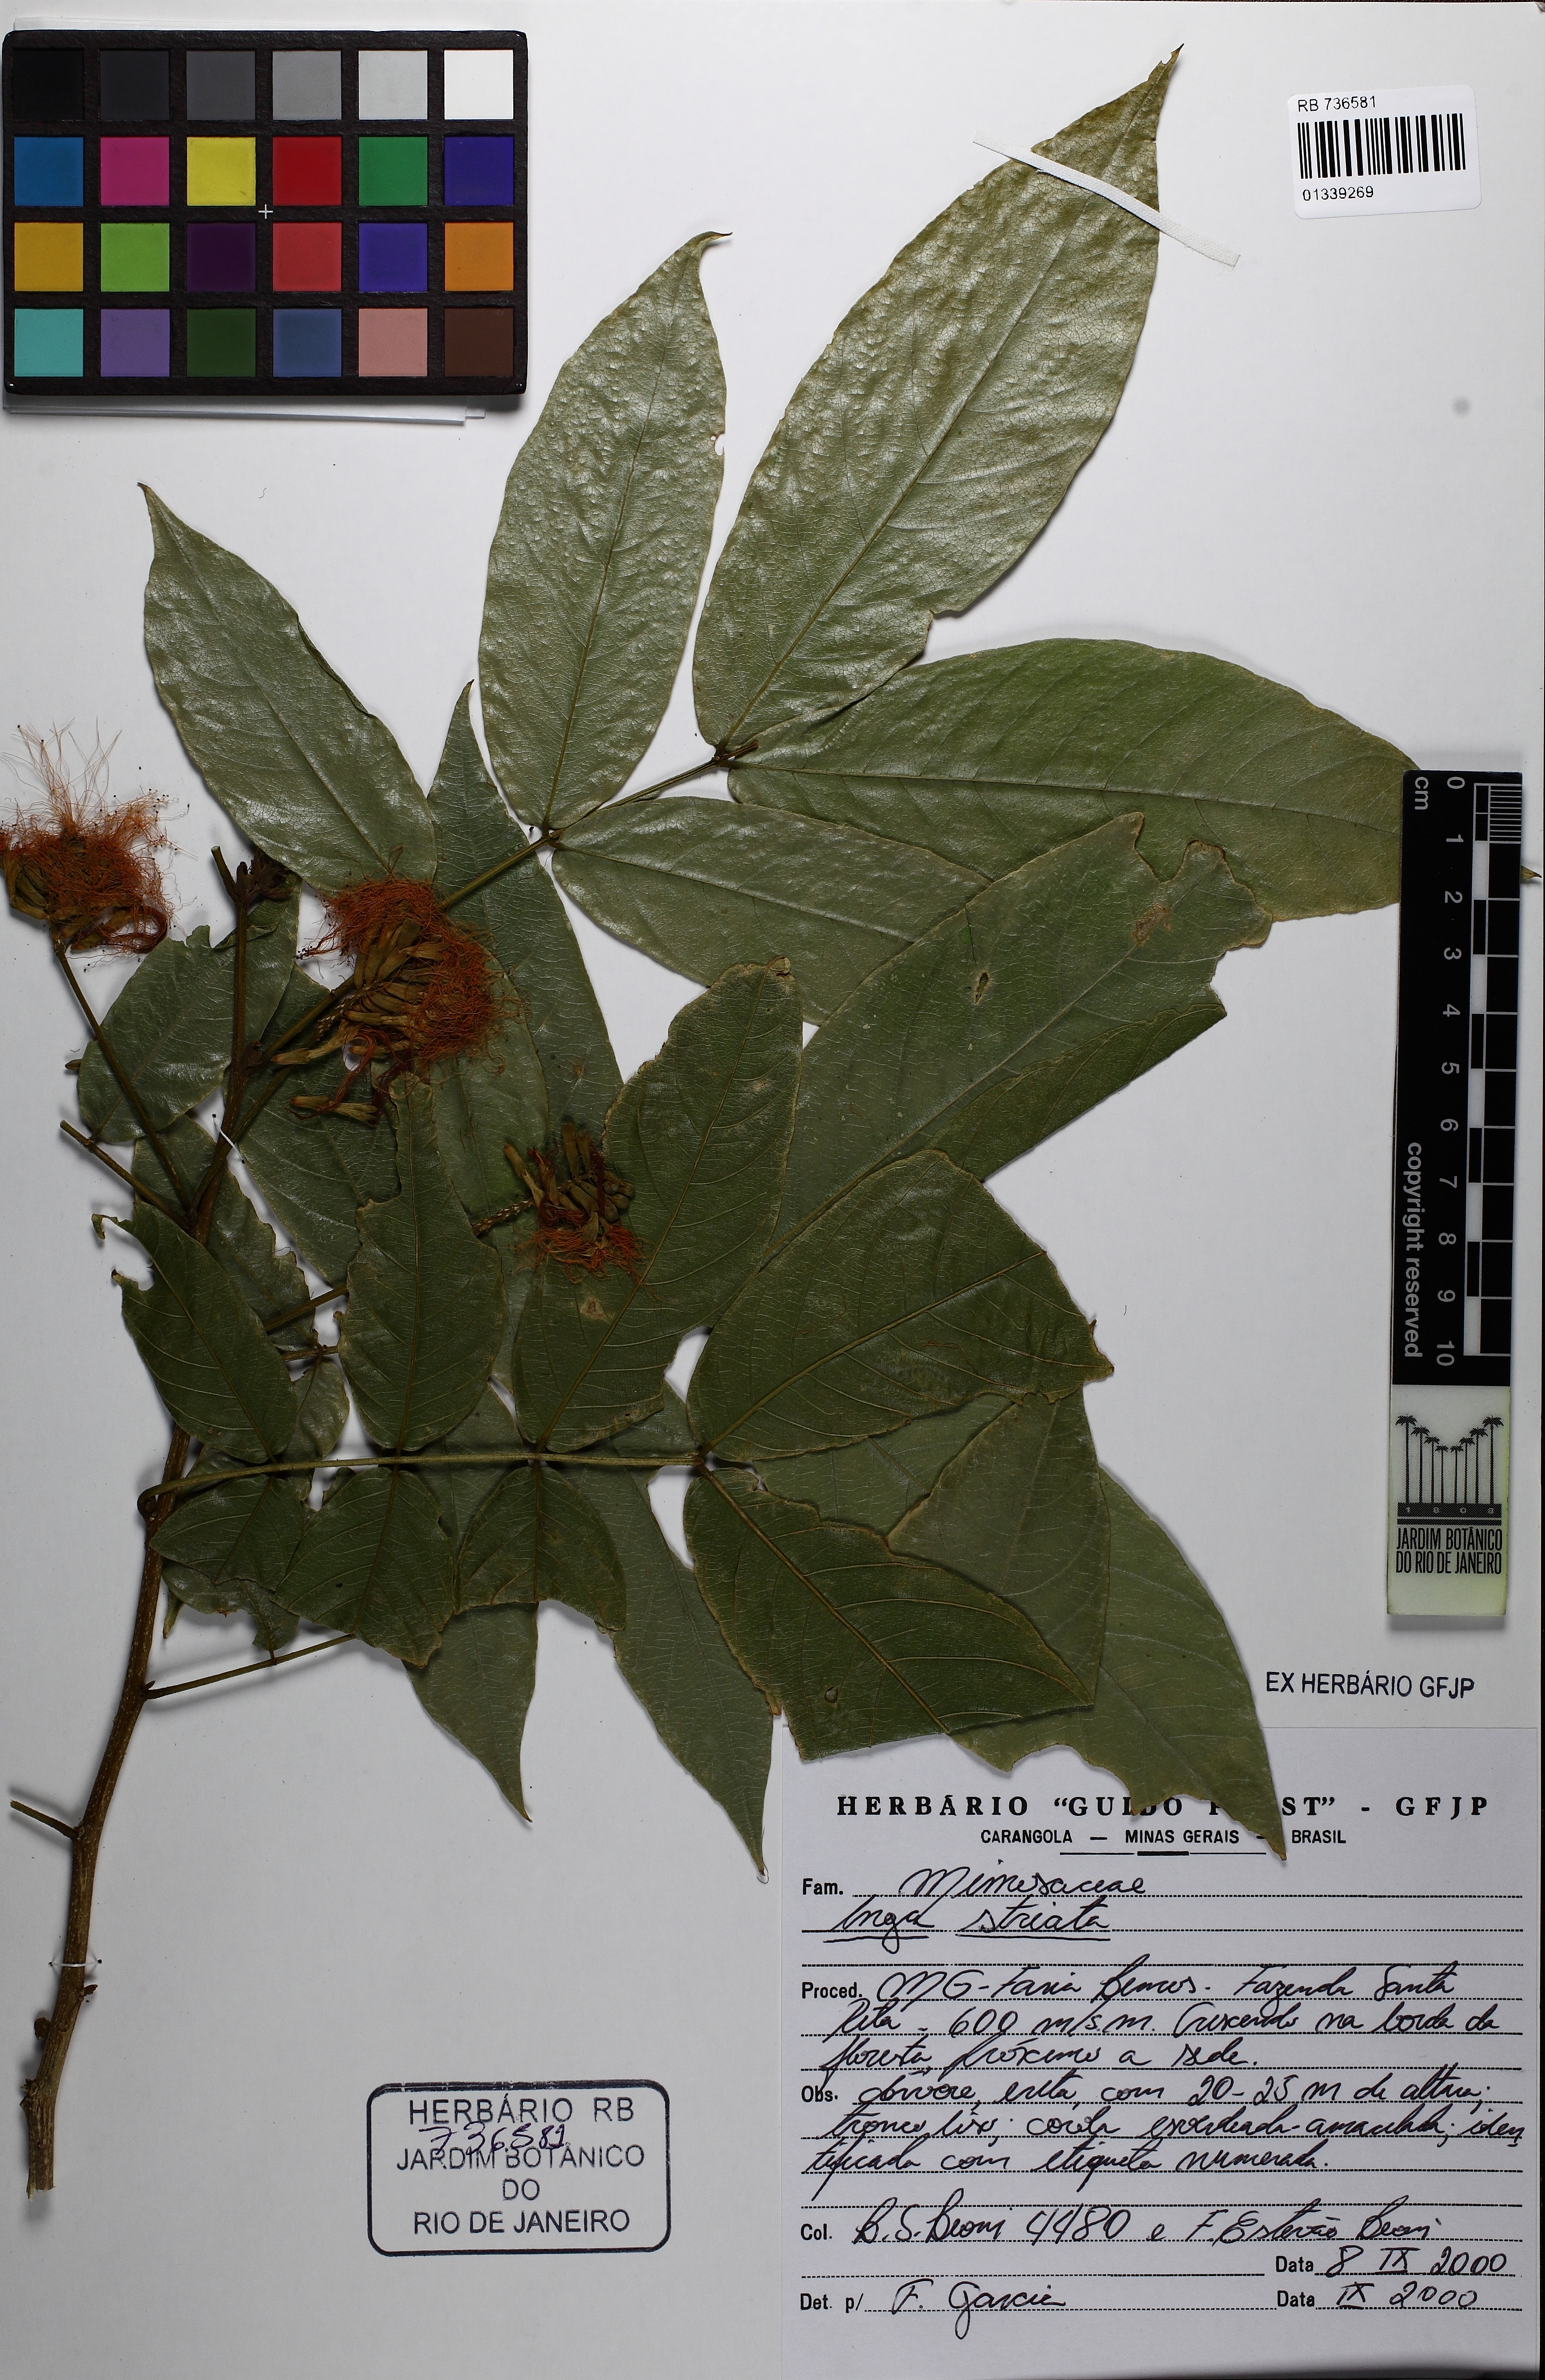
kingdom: Plantae
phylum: Tracheophyta
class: Magnoliopsida
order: Fabales
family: Fabaceae
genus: Inga
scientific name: Inga striata
